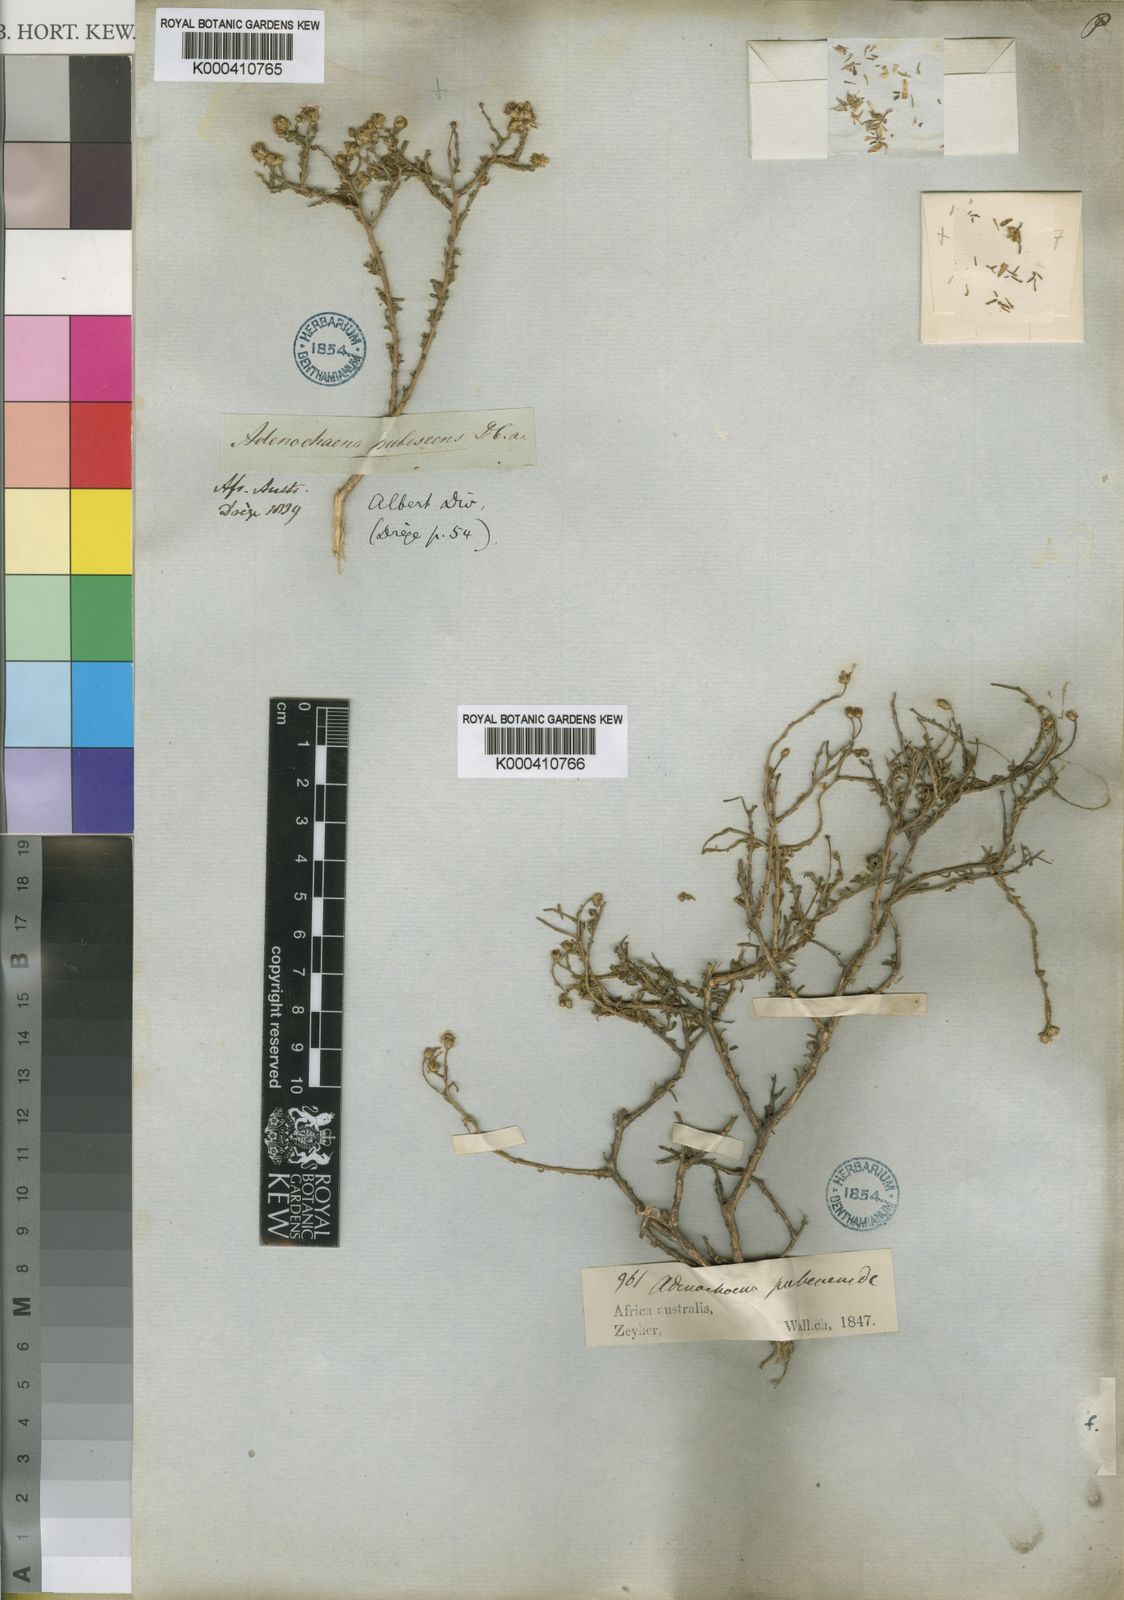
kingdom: Plantae
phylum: Tracheophyta
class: Magnoliopsida
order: Asterales
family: Asteraceae
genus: Phymaspermum
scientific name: Phymaspermum
